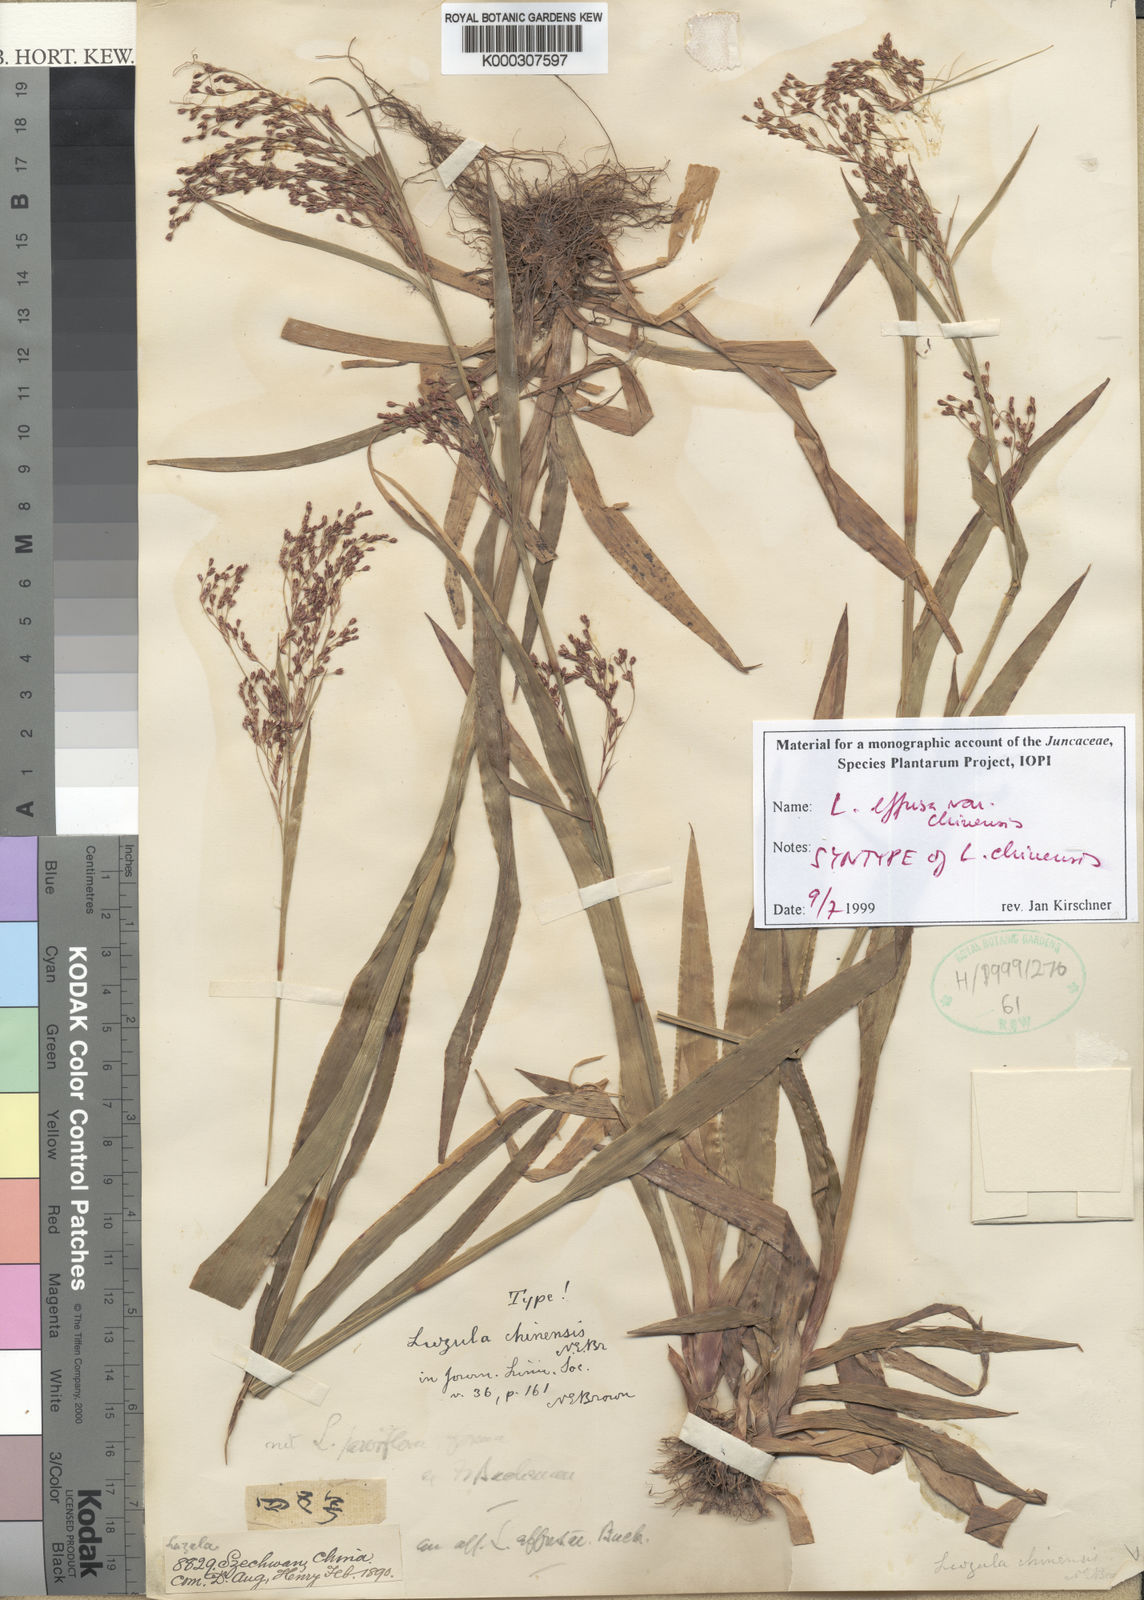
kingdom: Plantae
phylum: Tracheophyta
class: Liliopsida
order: Poales
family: Juncaceae
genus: Luzula
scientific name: Luzula effusa
